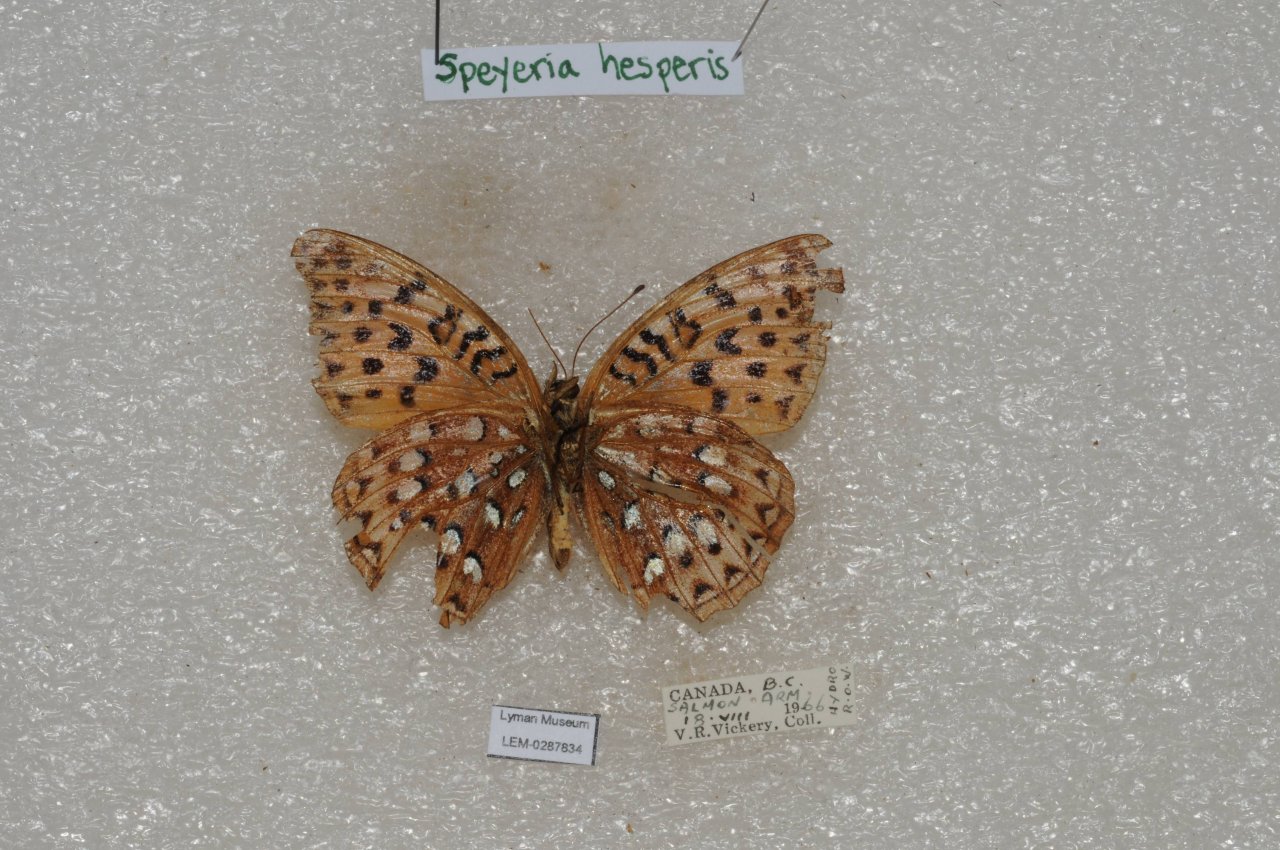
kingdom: Animalia
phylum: Arthropoda
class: Insecta
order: Lepidoptera
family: Nymphalidae
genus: Speyeria
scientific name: Speyeria atlantis
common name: Northwestern Fritillary
